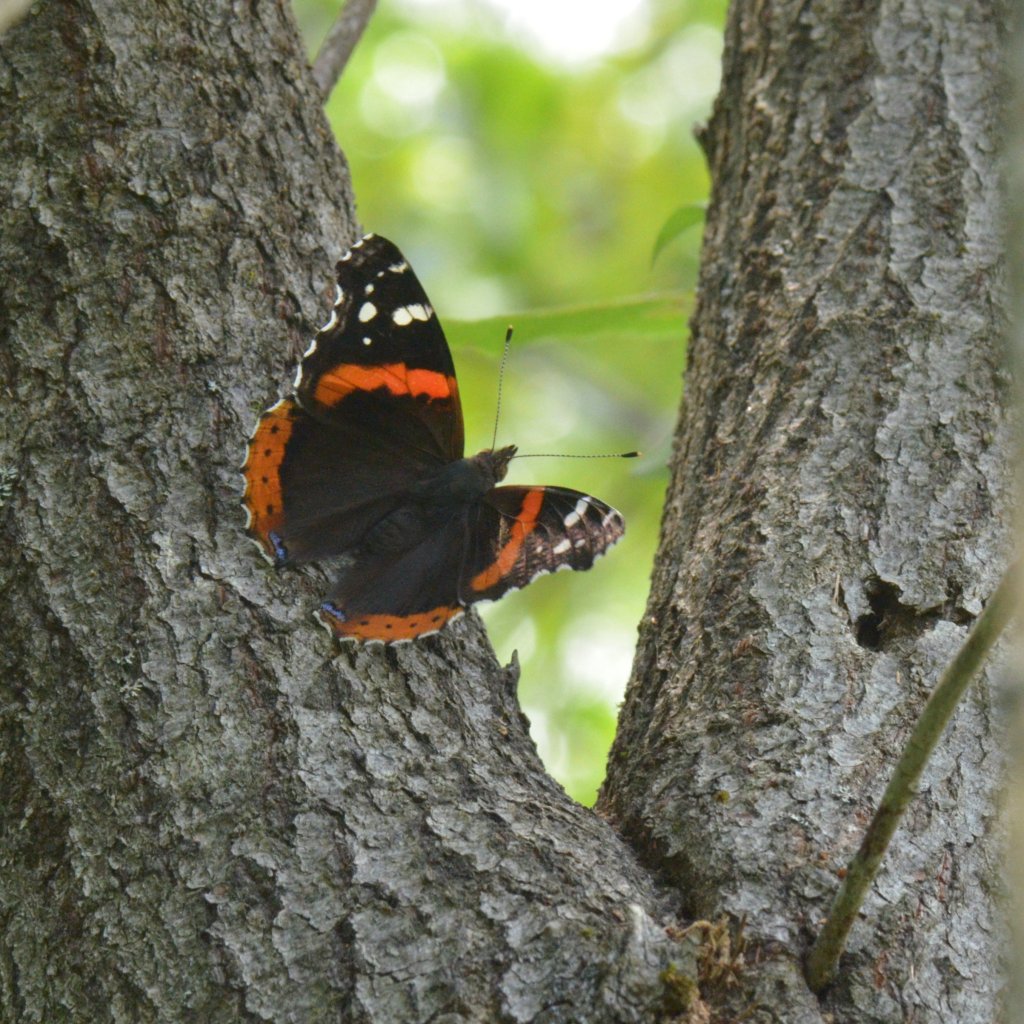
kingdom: Animalia
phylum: Arthropoda
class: Insecta
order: Lepidoptera
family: Nymphalidae
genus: Vanessa
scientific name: Vanessa atalanta
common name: Red Admiral
